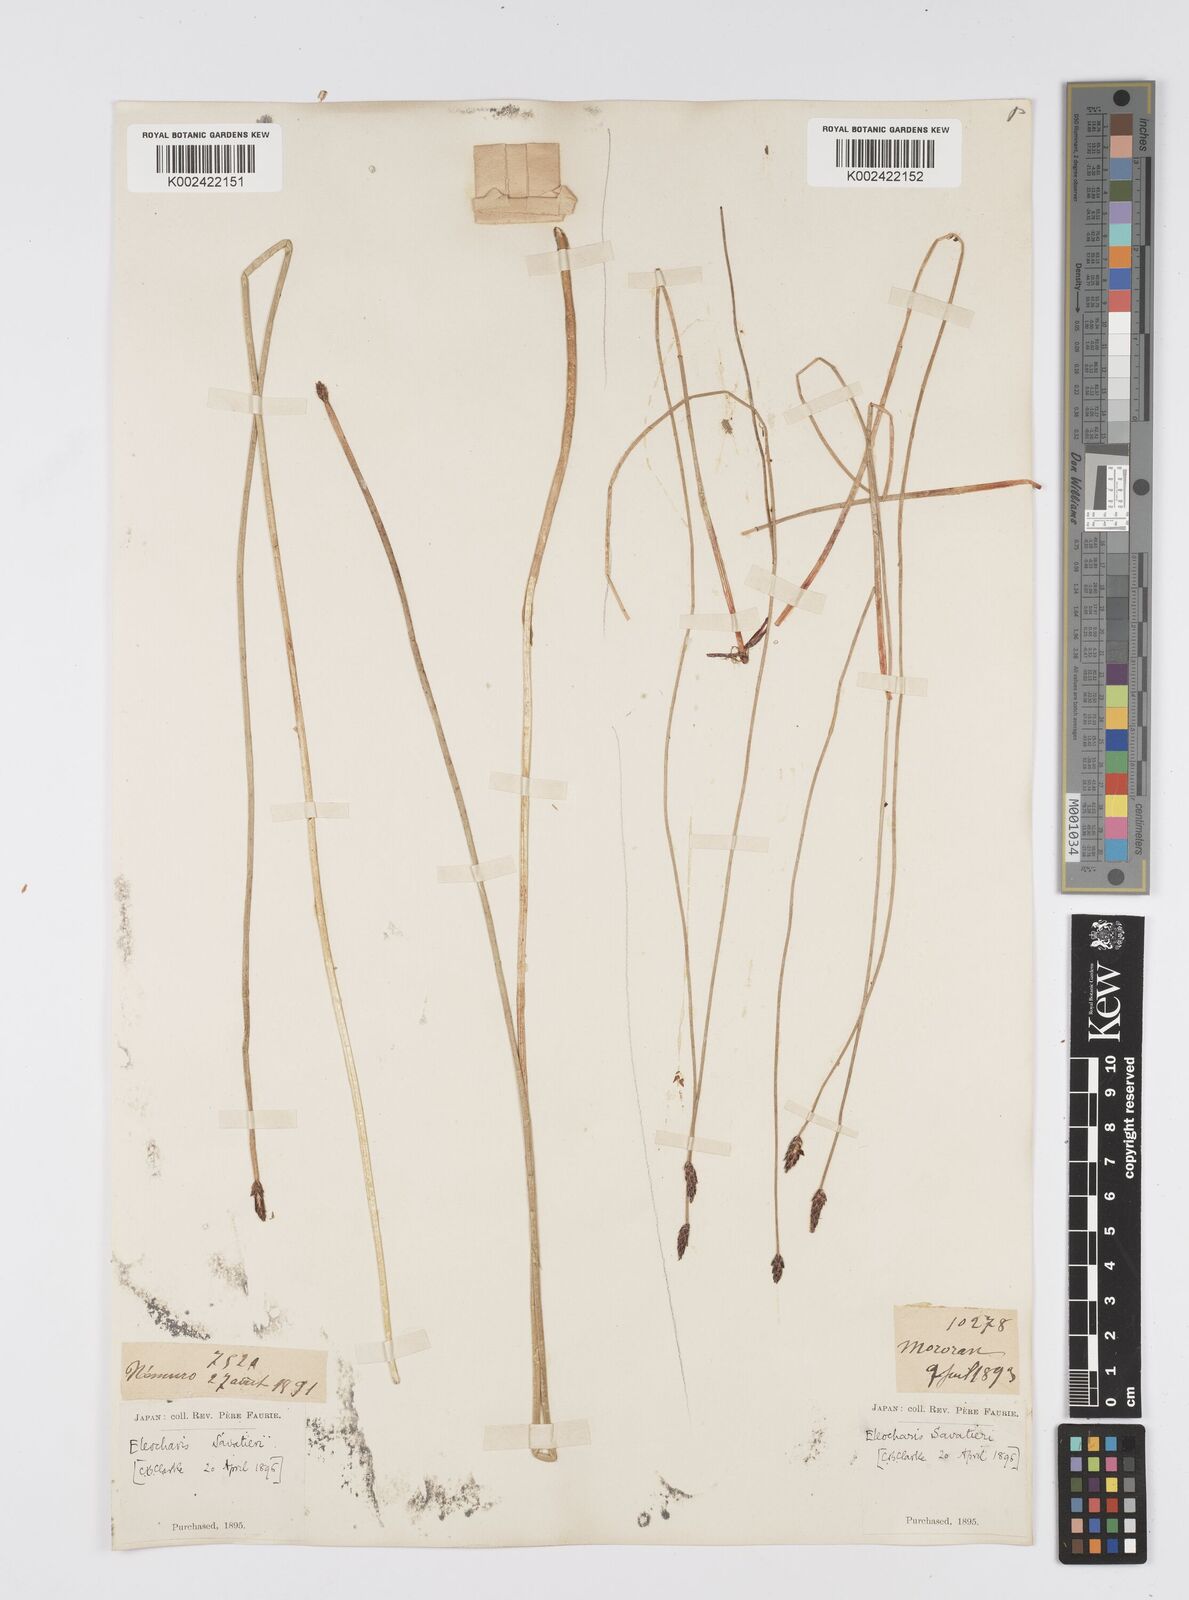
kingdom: Plantae
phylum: Tracheophyta
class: Liliopsida
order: Poales
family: Cyperaceae
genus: Eleocharis
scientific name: Eleocharis kamtschatica
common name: Kamchatka spikerush
